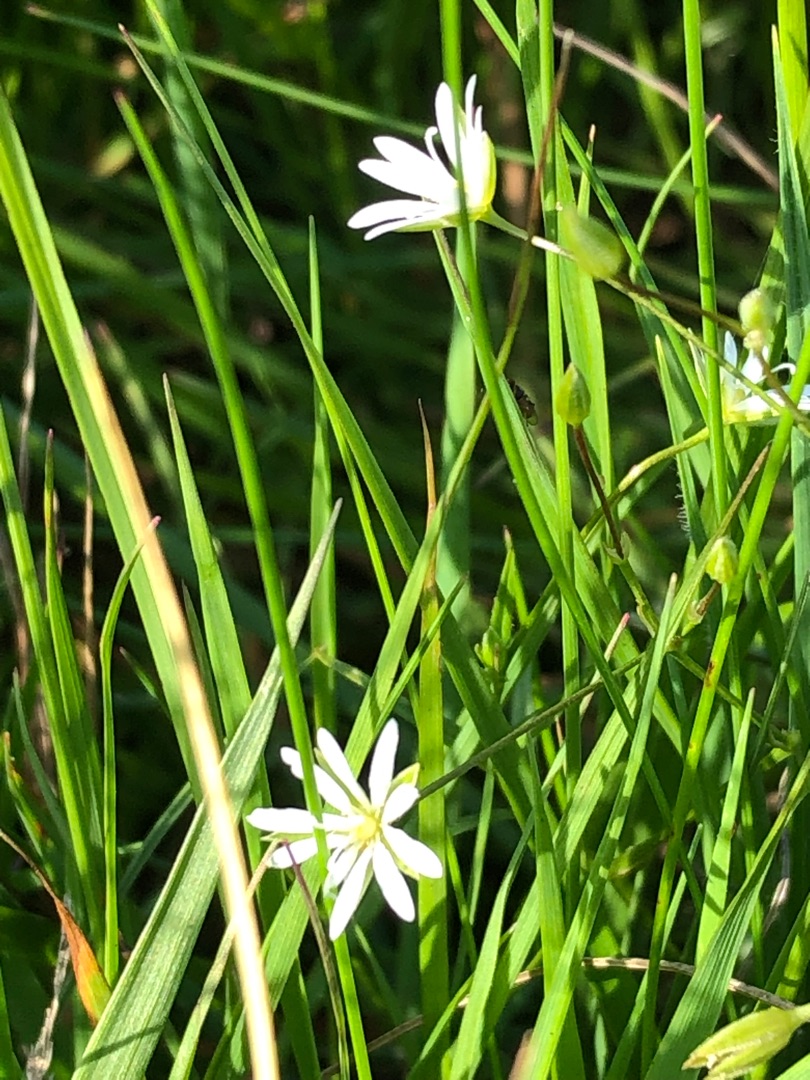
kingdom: Plantae
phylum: Tracheophyta
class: Magnoliopsida
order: Caryophyllales
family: Caryophyllaceae
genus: Stellaria
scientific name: Stellaria graminea
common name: Græsbladet fladstjerne
